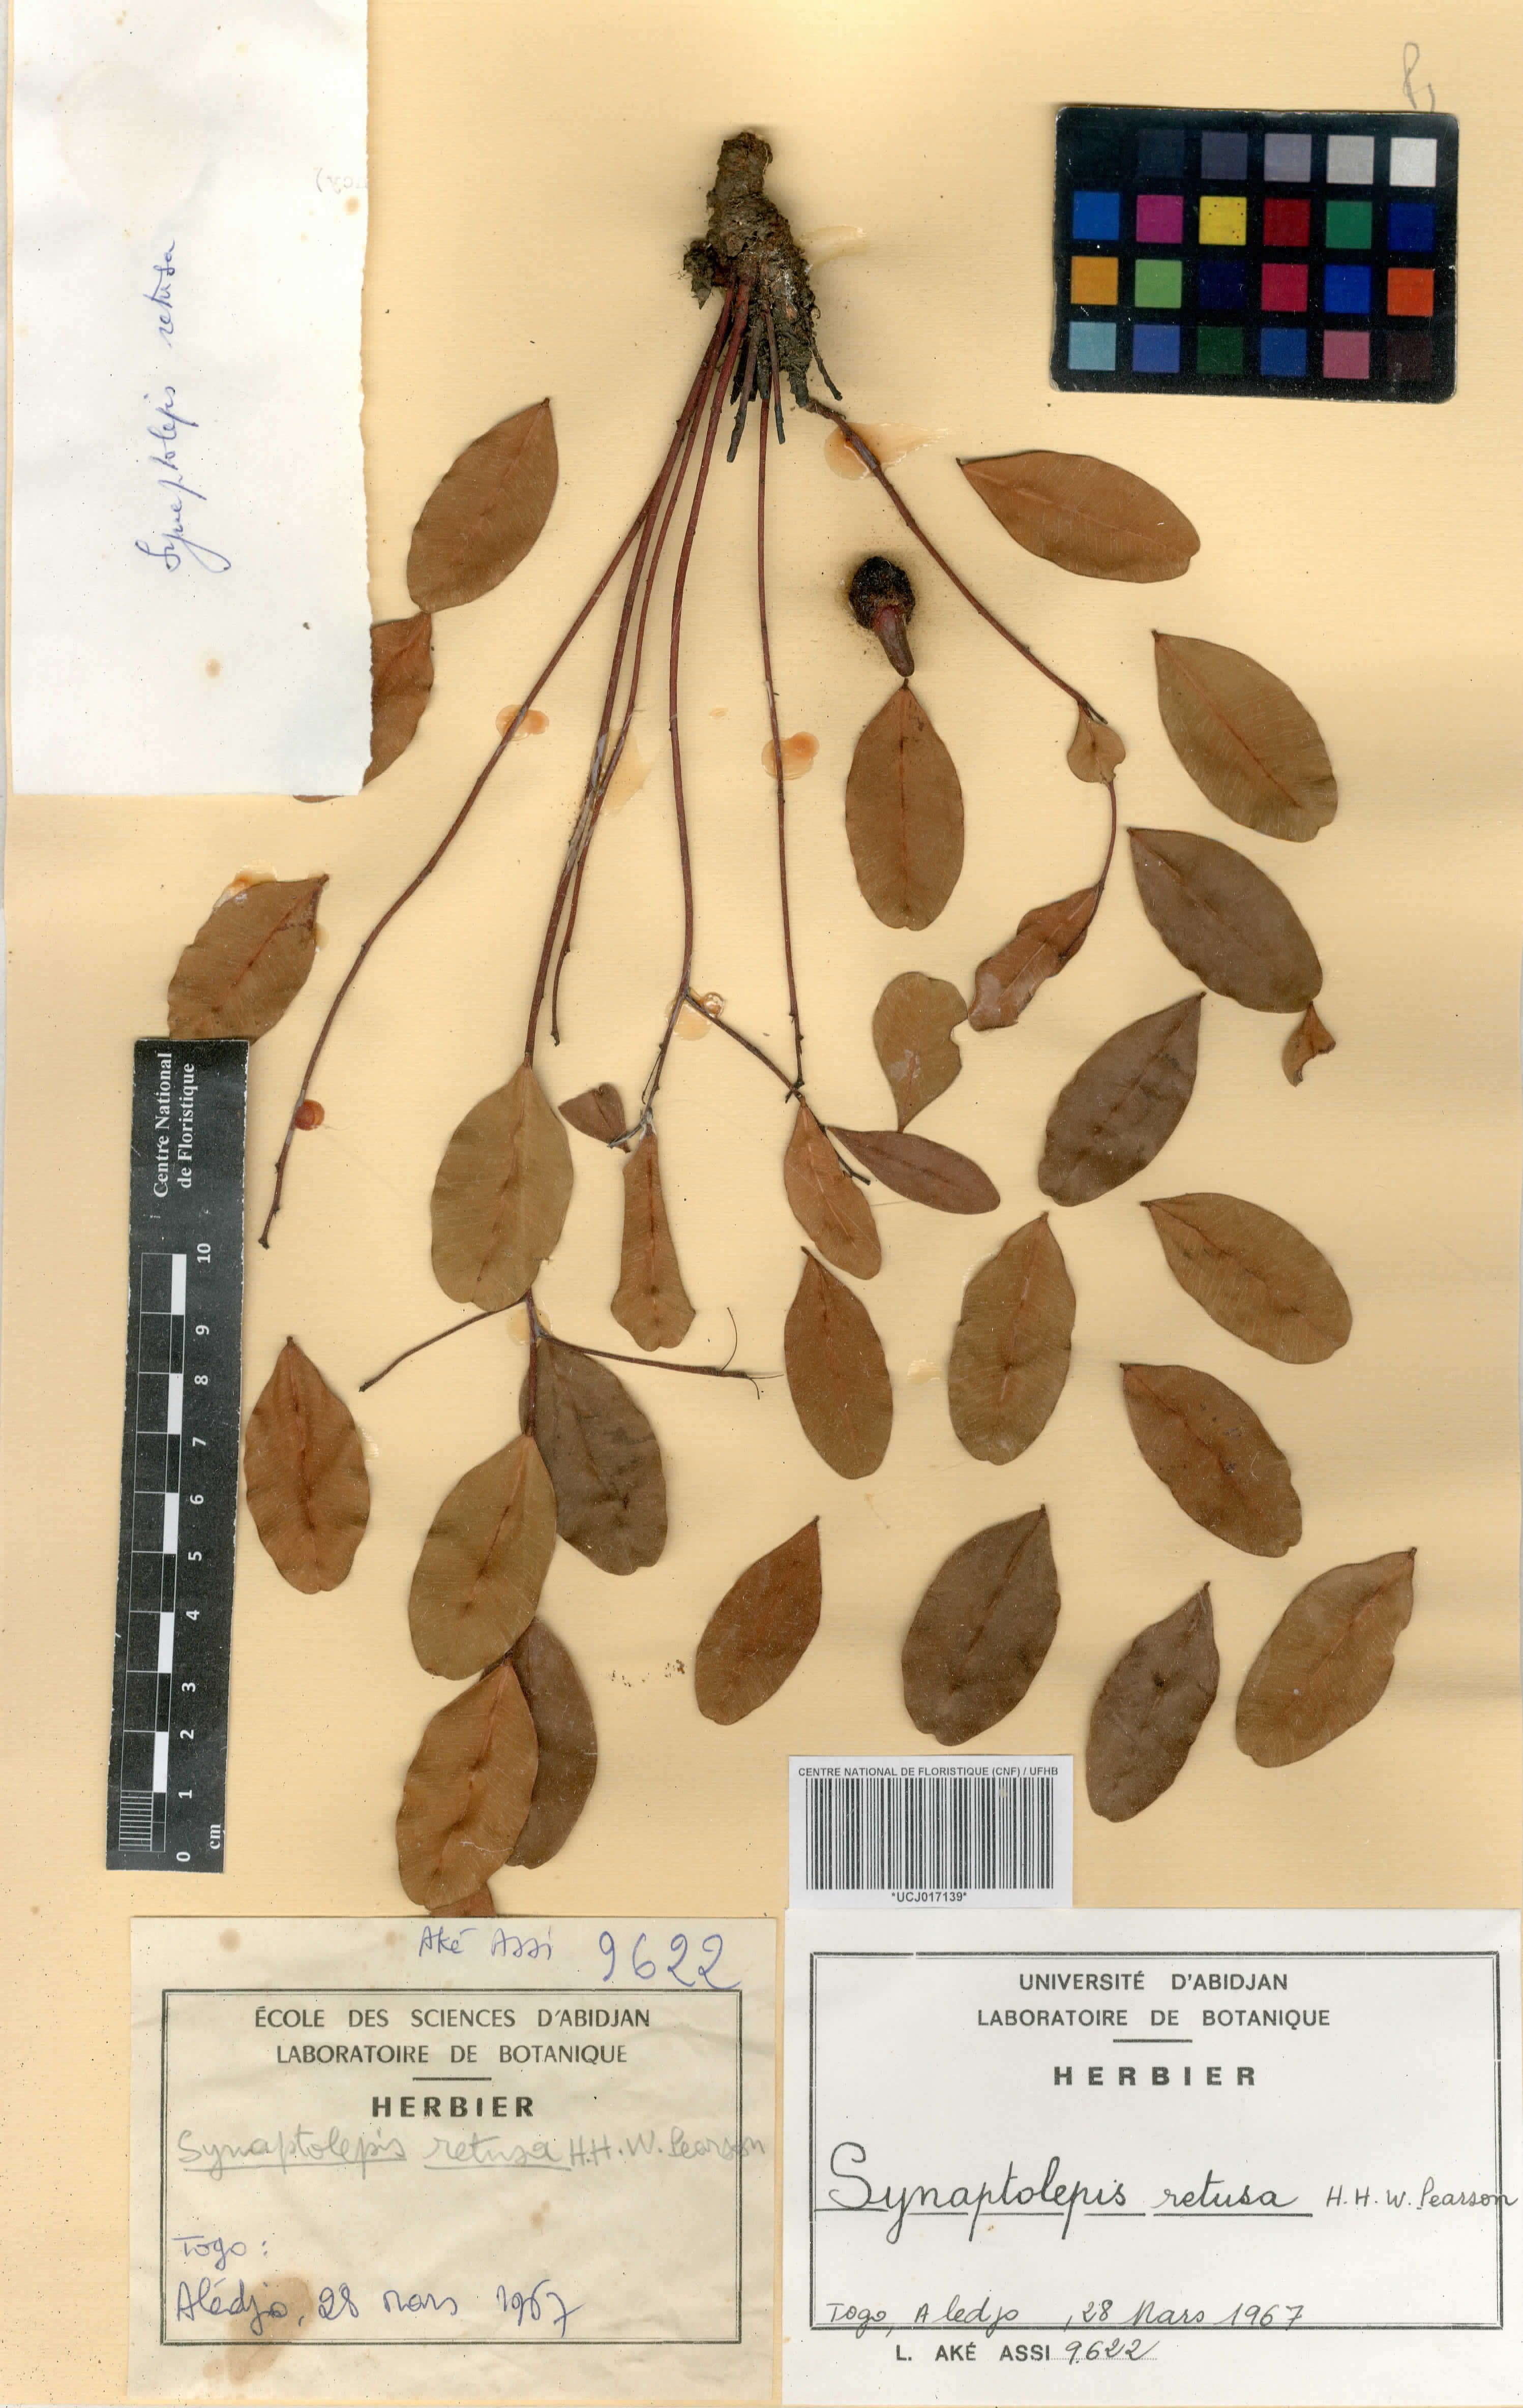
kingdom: Plantae
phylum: Tracheophyta
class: Magnoliopsida
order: Malvales
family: Thymelaeaceae
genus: Synaptolepis
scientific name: Synaptolepis retusa
